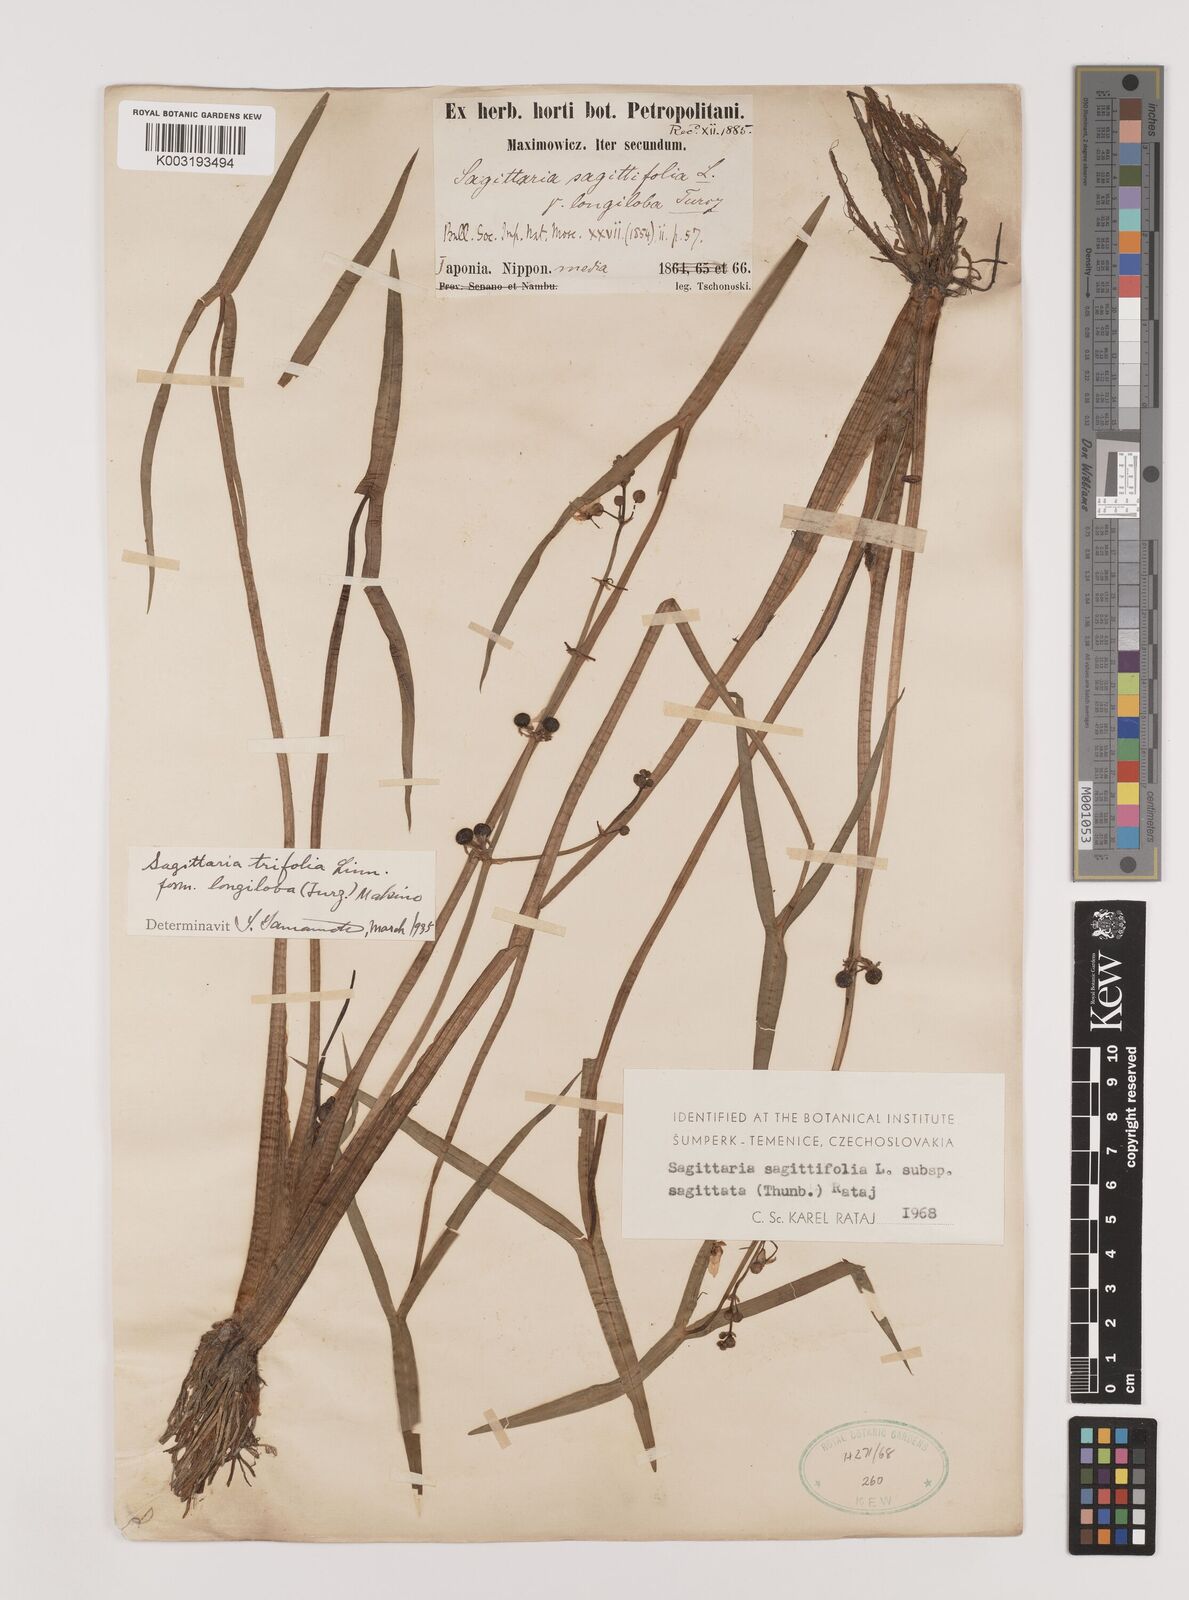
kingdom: Plantae
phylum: Tracheophyta
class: Liliopsida
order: Alismatales
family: Alismataceae
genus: Sagittaria
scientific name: Sagittaria sagittifolia
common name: Arrowhead
